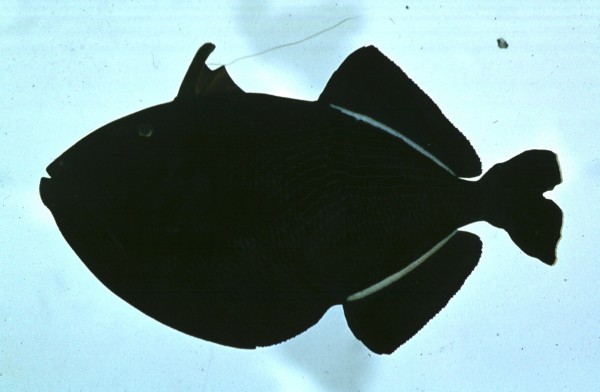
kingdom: Animalia
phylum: Chordata
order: Tetraodontiformes
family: Balistidae
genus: Melichthys
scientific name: Melichthys niger
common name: Black durgon
